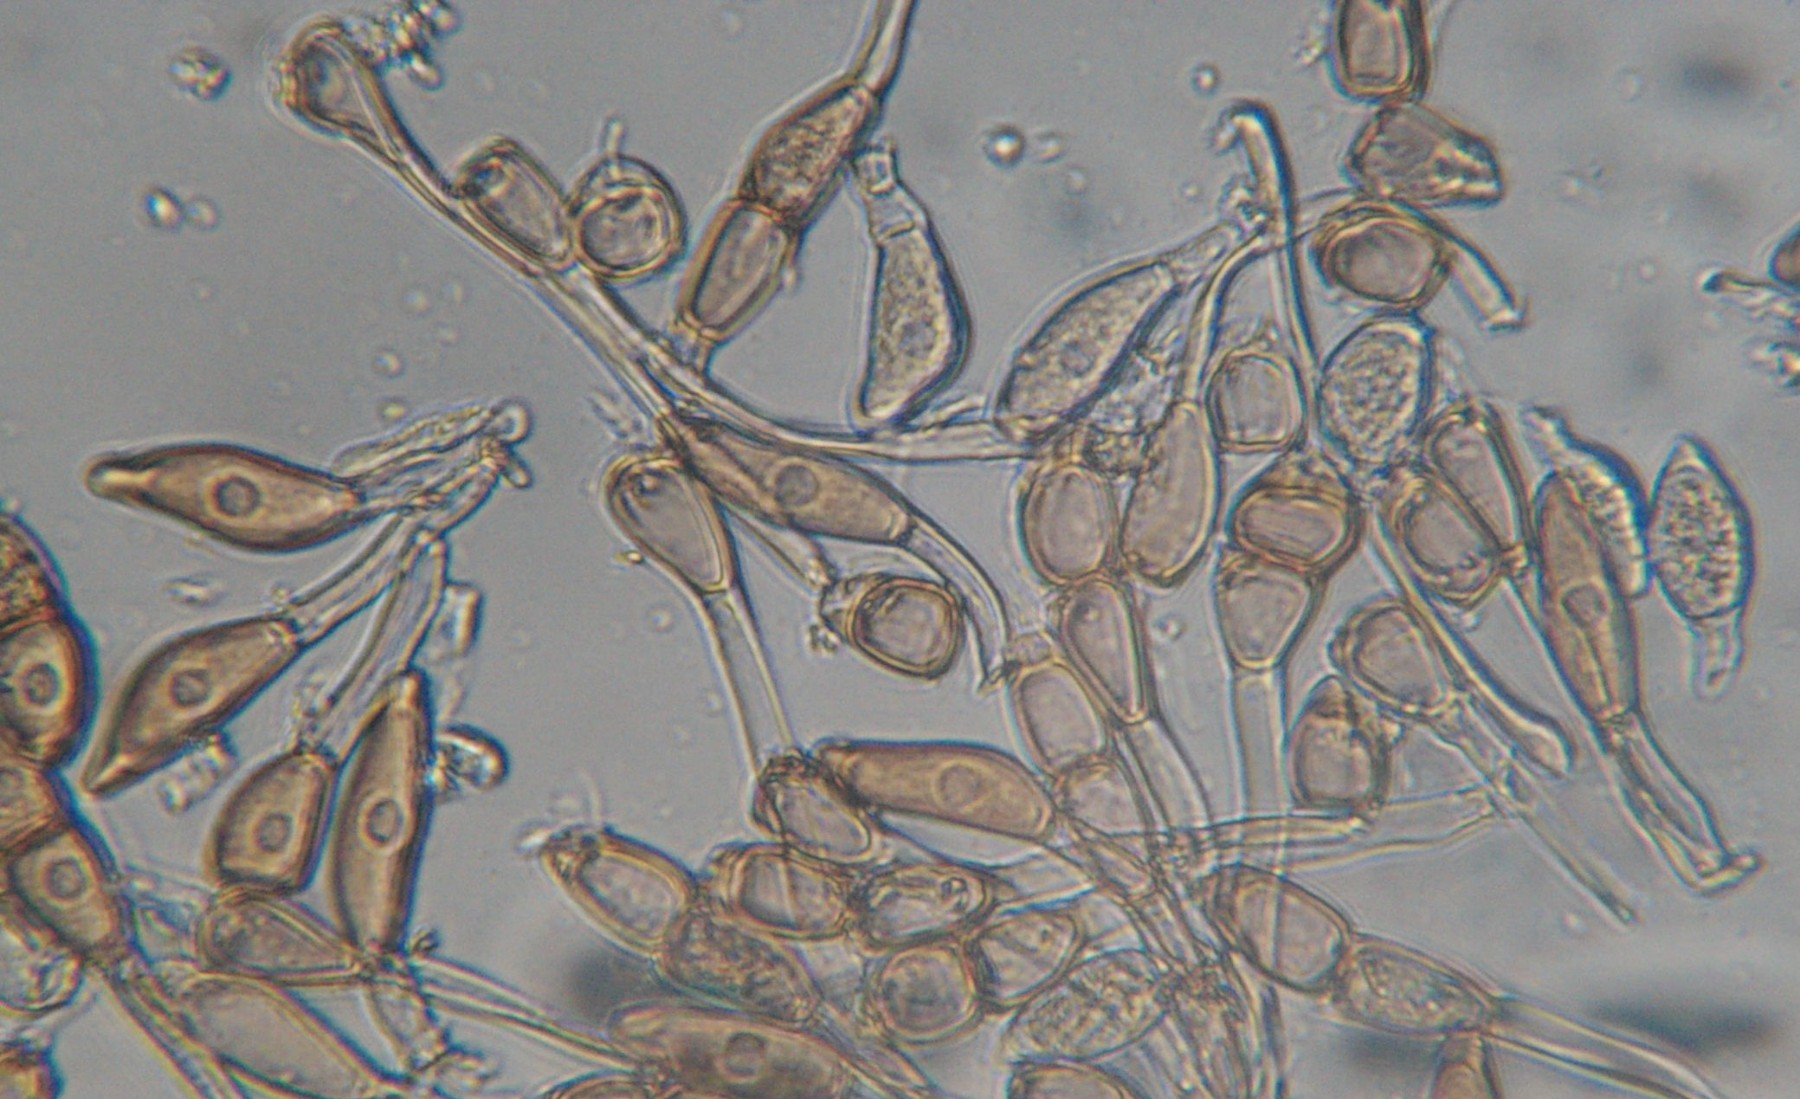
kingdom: Fungi
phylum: Basidiomycota
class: Pucciniomycetes
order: Pucciniales
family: Pucciniaceae
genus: Puccinia
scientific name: Puccinia violae
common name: viol-tvecellerust
